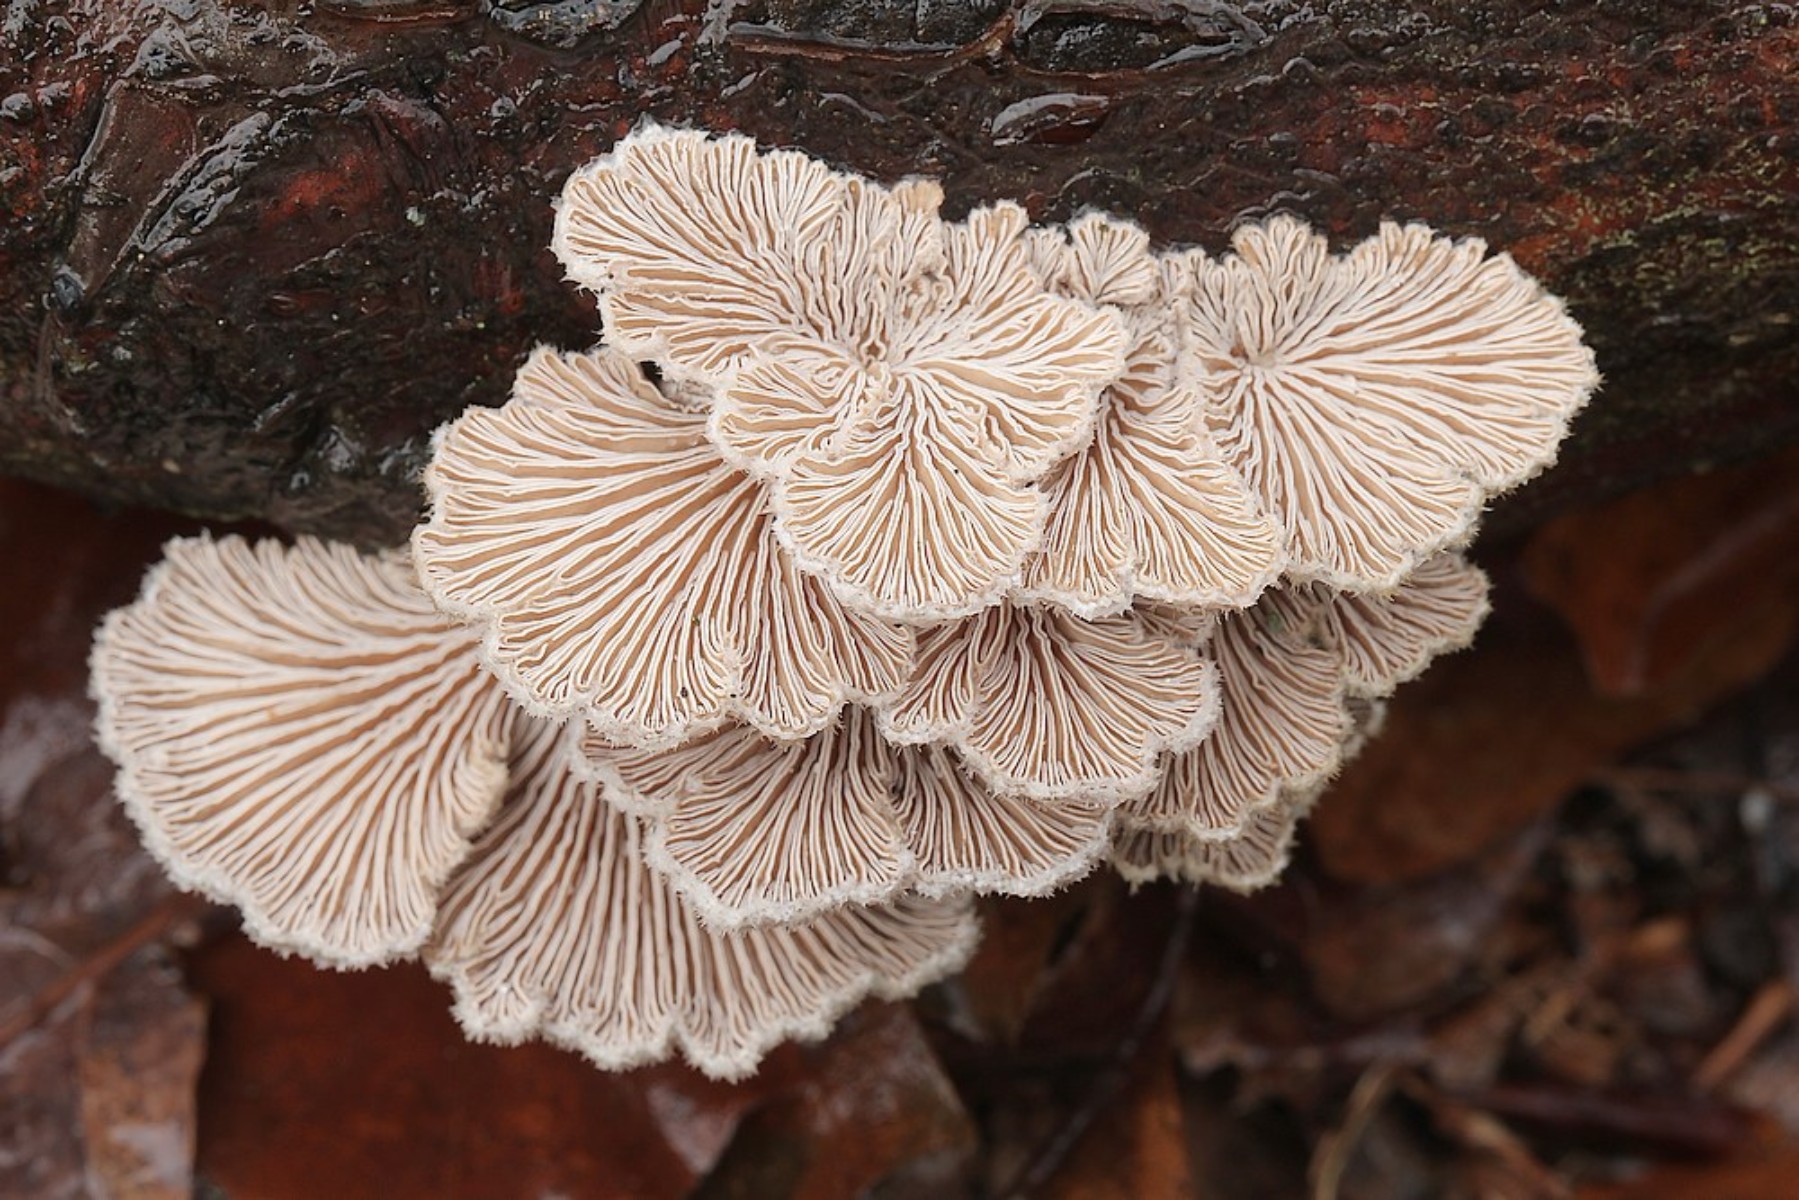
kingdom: Fungi
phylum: Basidiomycota
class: Agaricomycetes
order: Agaricales
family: Schizophyllaceae
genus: Schizophyllum
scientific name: Schizophyllum commune
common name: kløvblad
